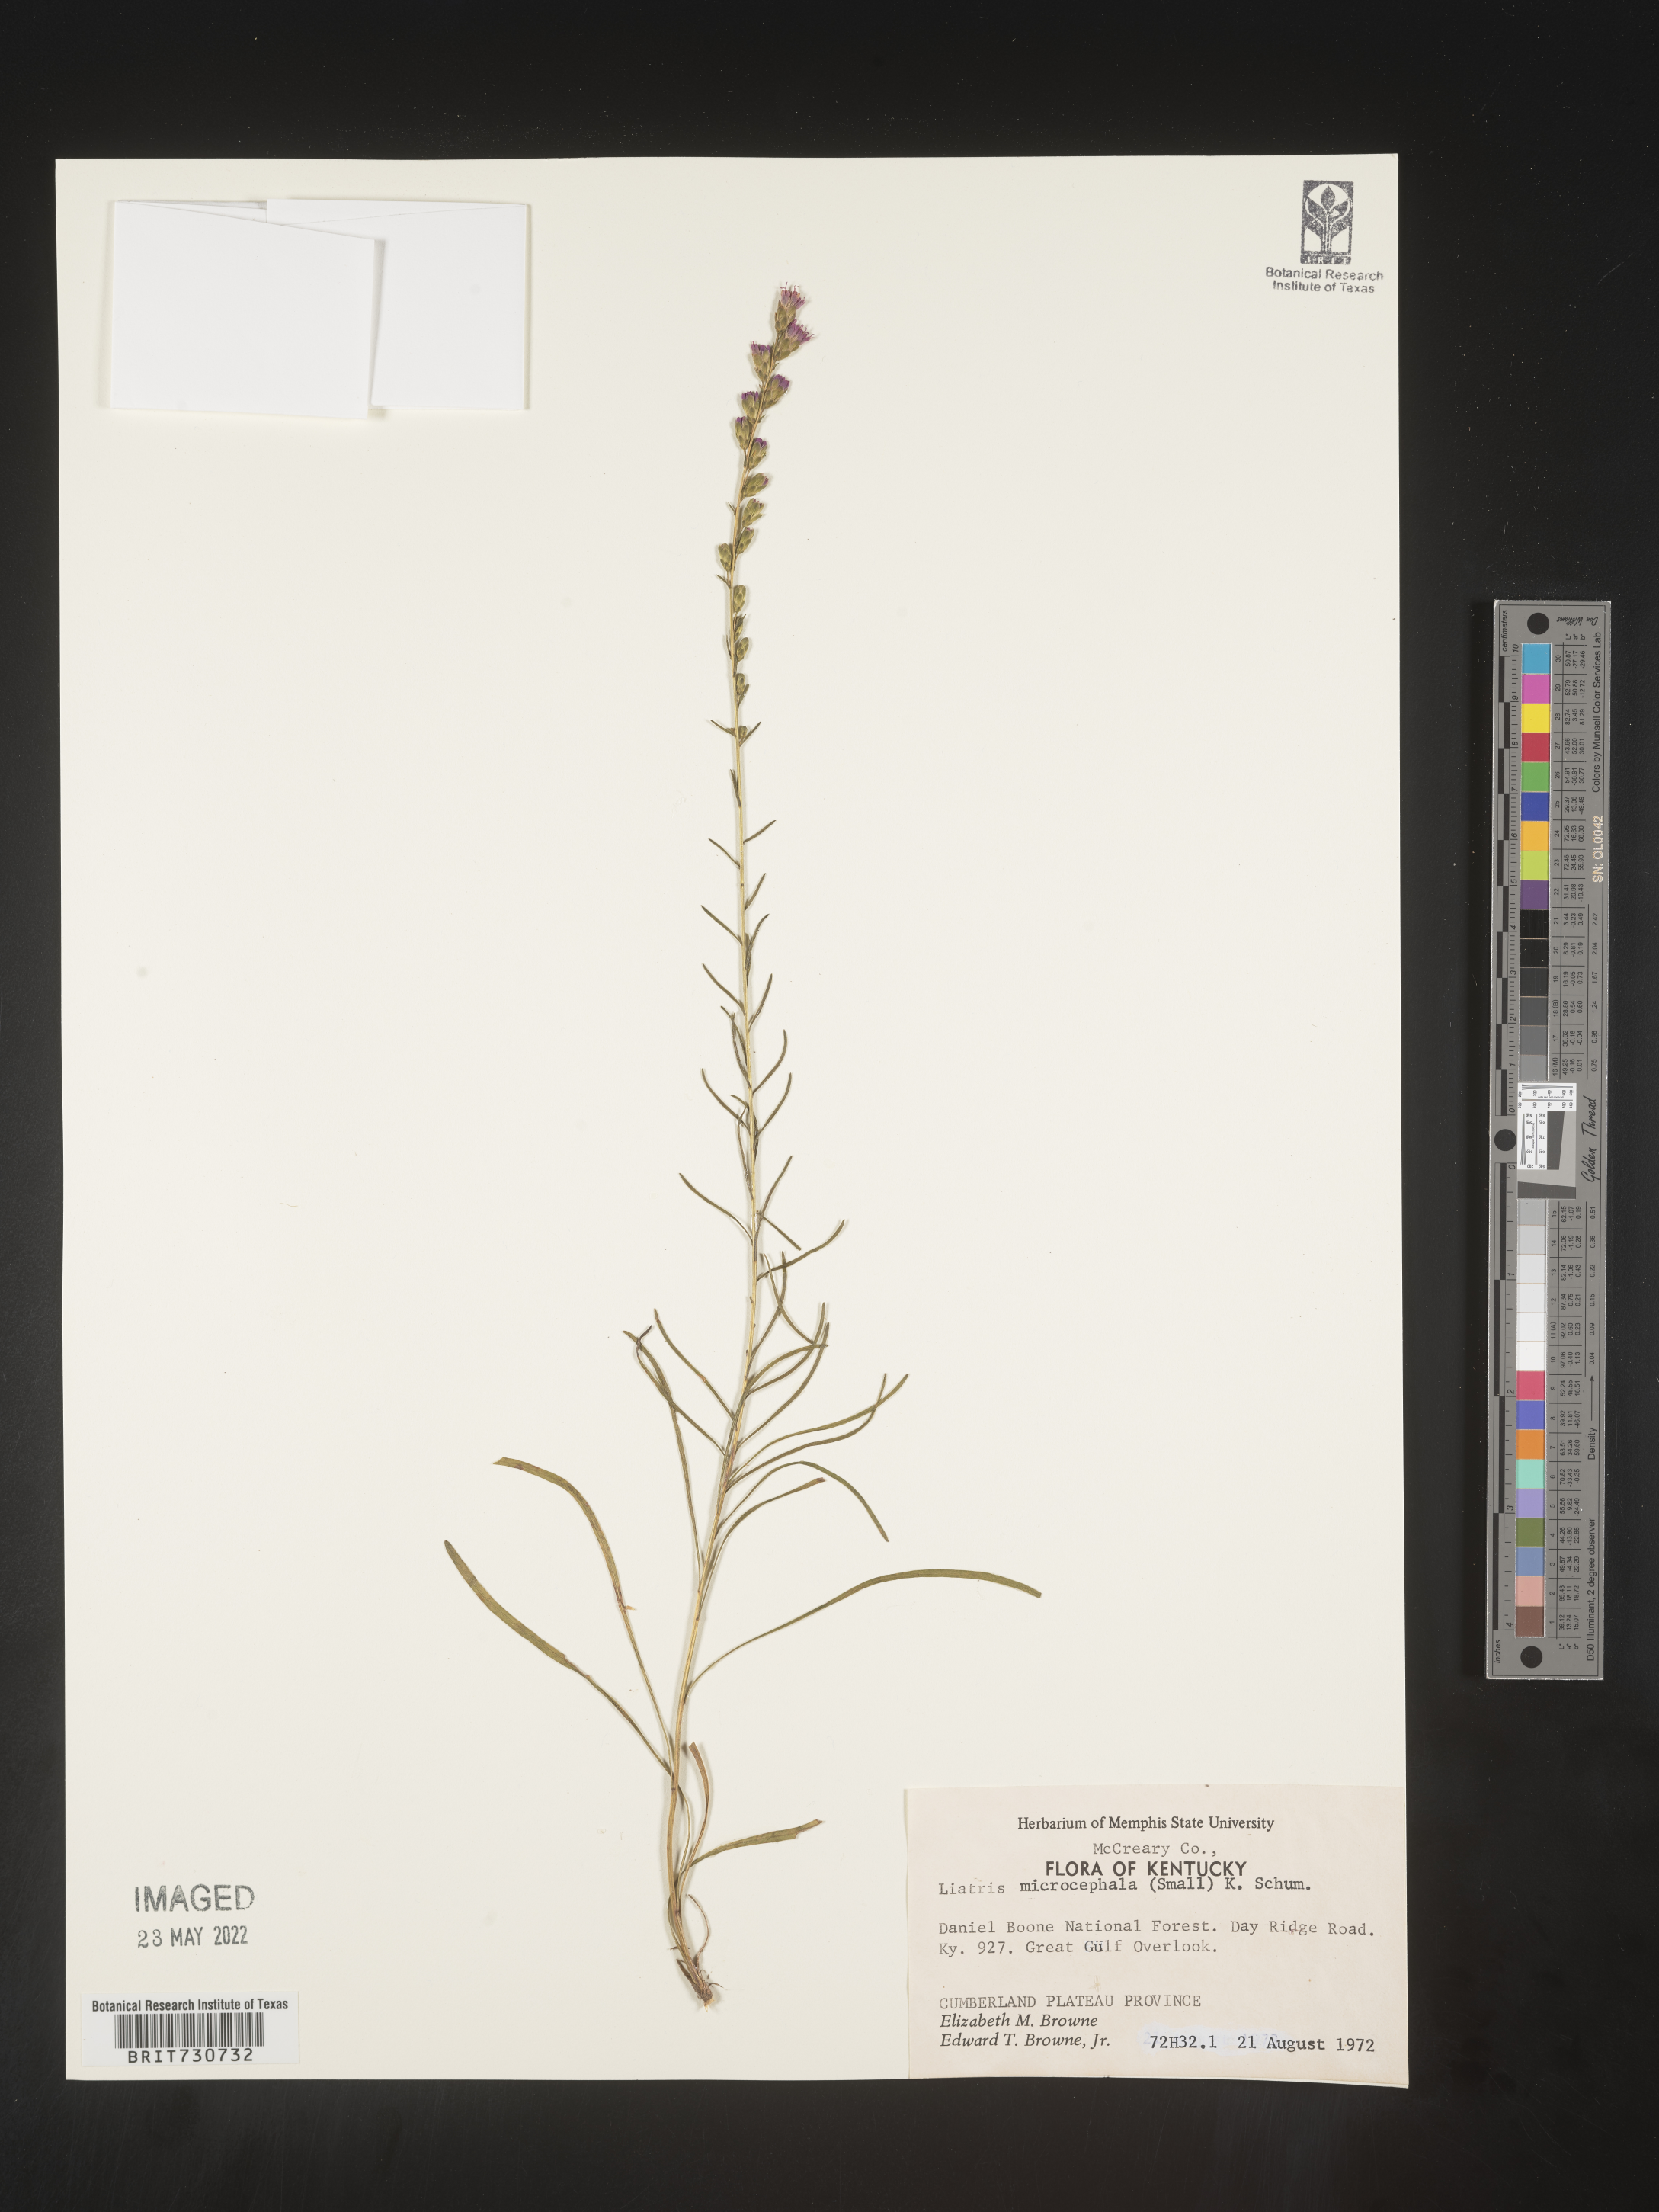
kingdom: Plantae
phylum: Tracheophyta
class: Magnoliopsida
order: Asterales
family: Asteraceae
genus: Liatris
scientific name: Liatris microcephala
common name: Small-head gayfeather
